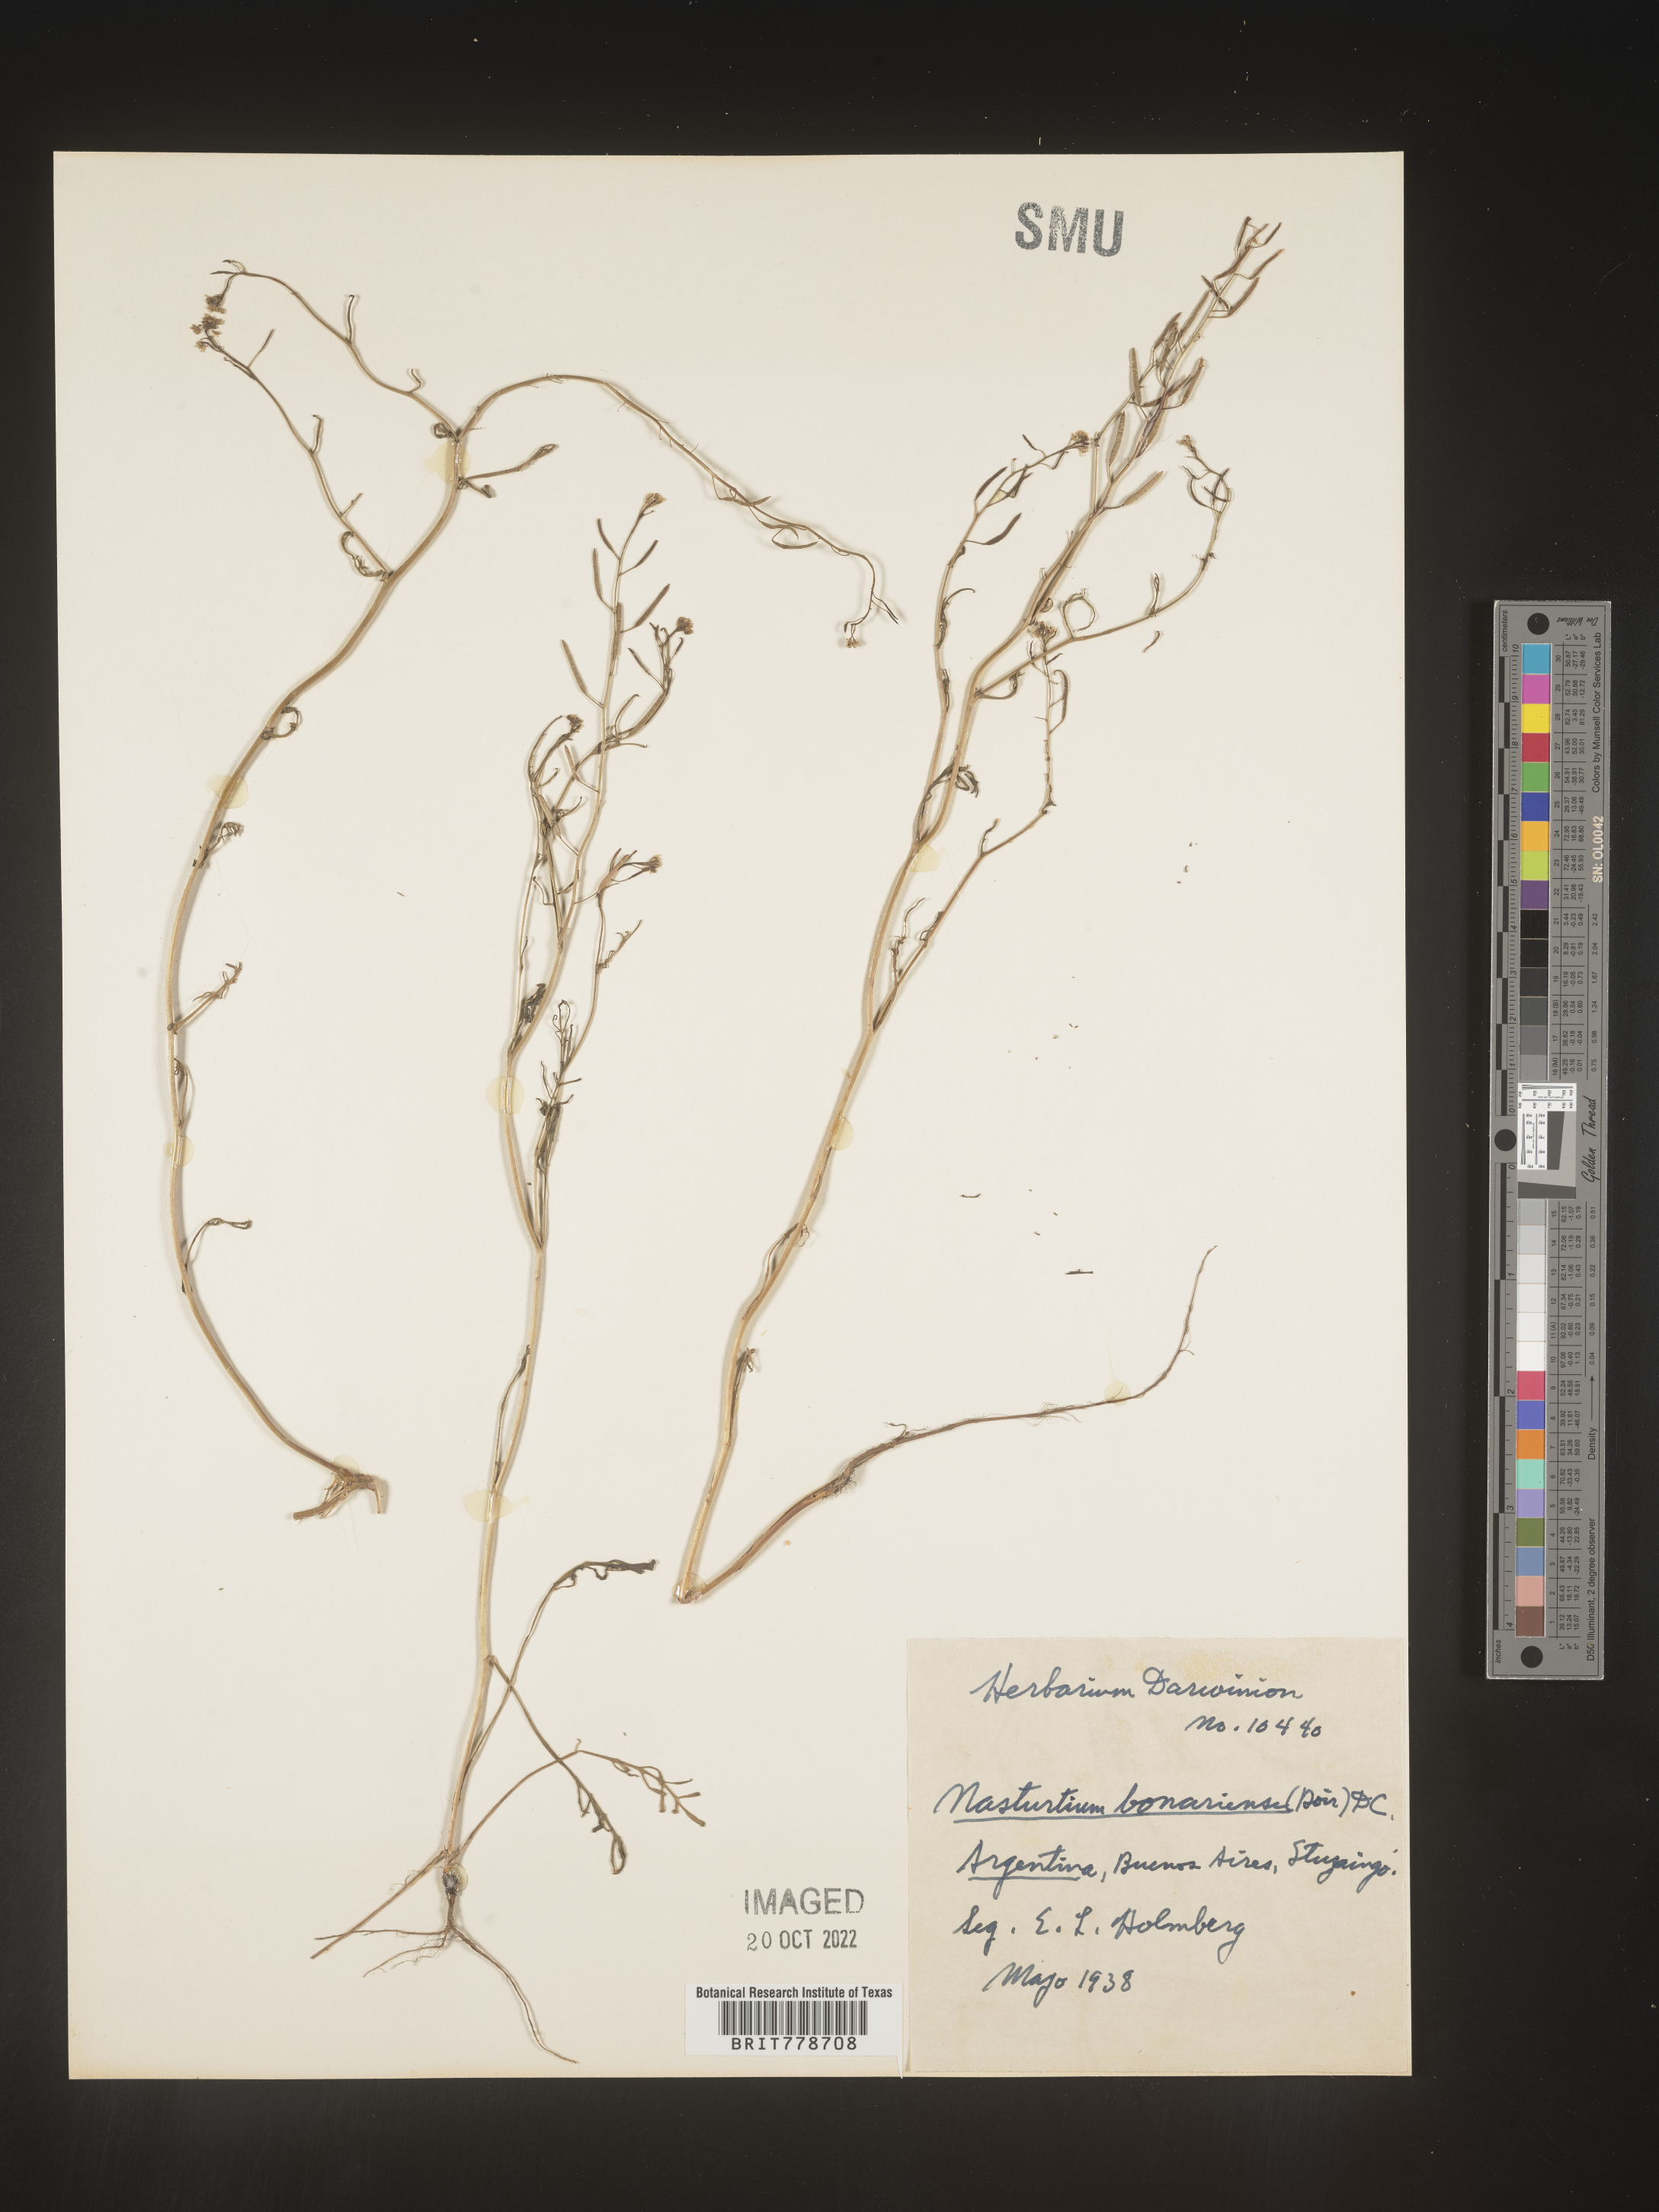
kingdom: Plantae
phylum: Tracheophyta
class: Magnoliopsida
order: Brassicales
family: Brassicaceae
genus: Rorippa
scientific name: Rorippa
